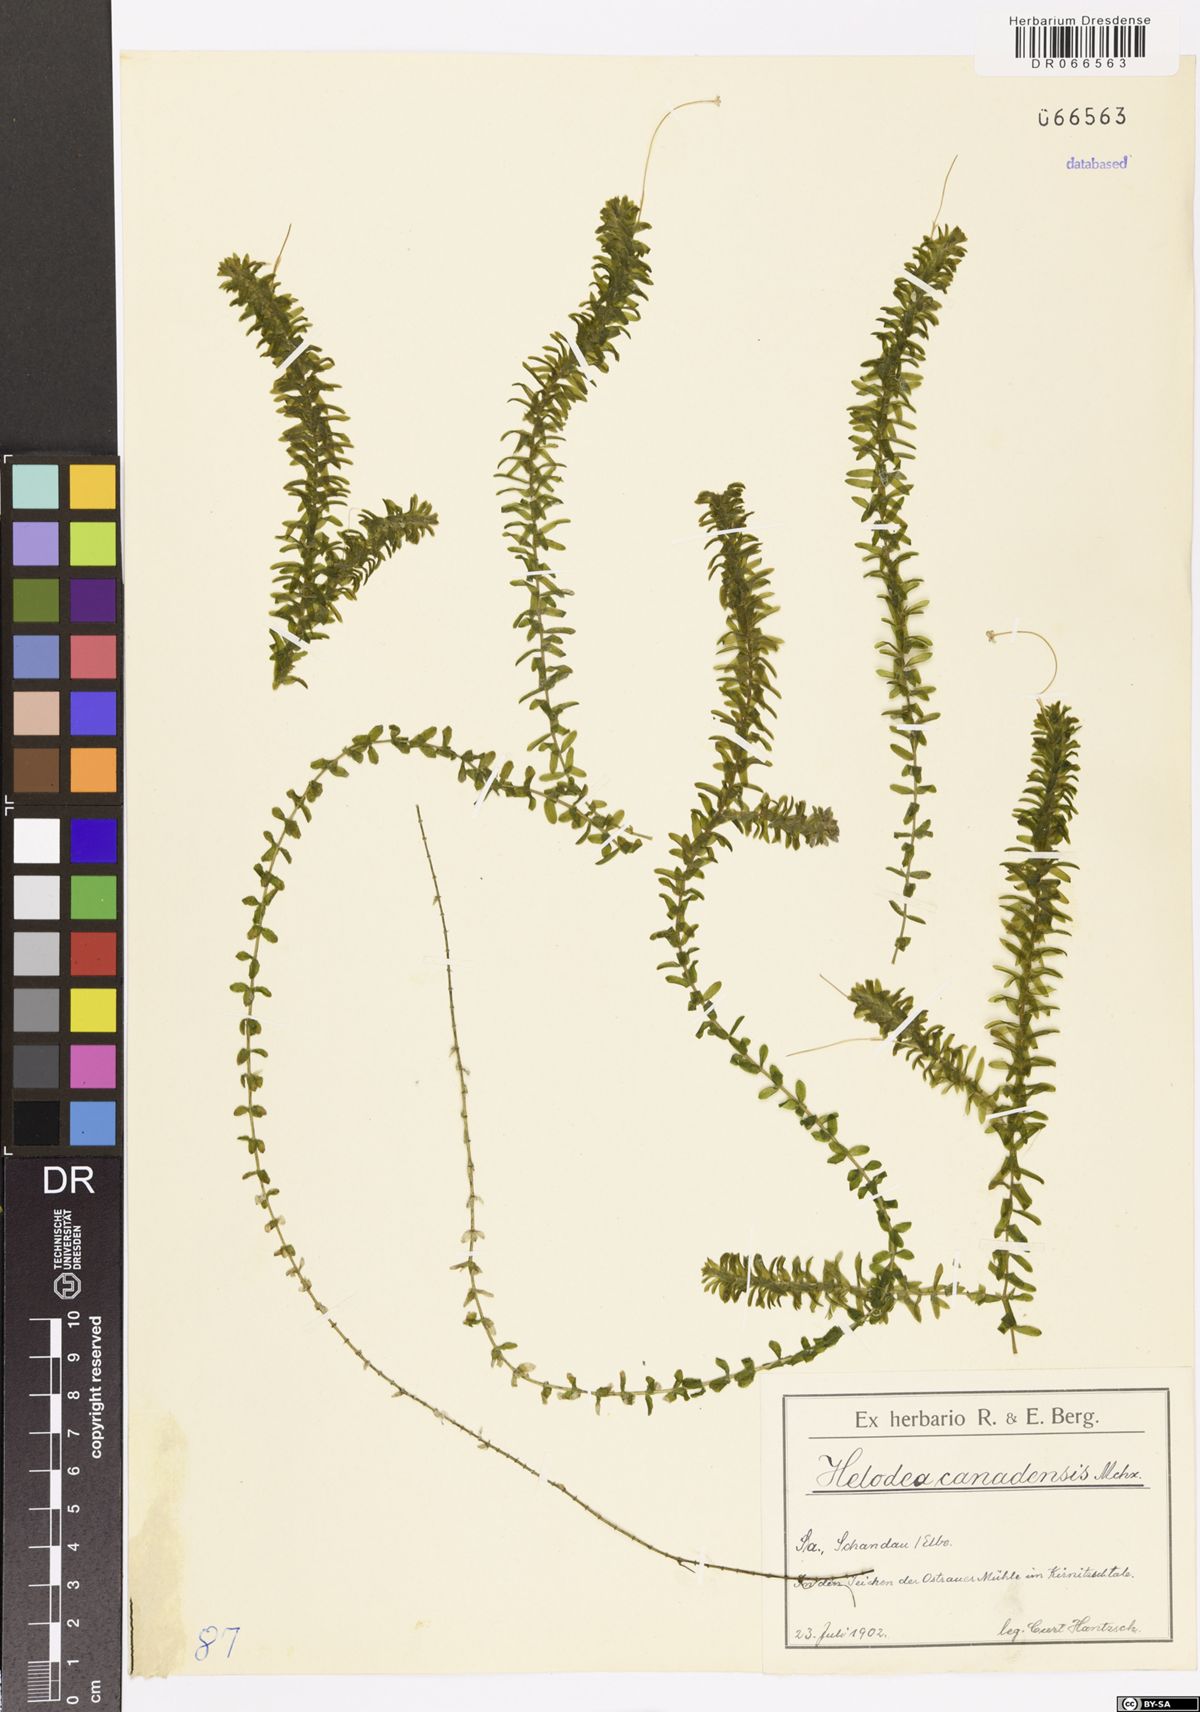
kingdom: Plantae
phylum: Tracheophyta
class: Liliopsida
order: Alismatales
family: Hydrocharitaceae
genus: Elodea
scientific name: Elodea canadensis
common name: Canadian waterweed
